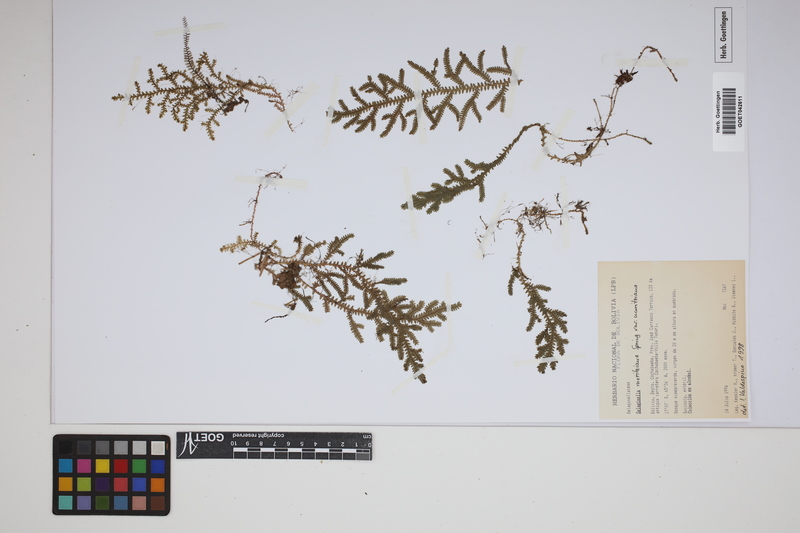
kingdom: Plantae
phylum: Tracheophyta
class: Lycopodiopsida
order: Selaginellales
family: Selaginellaceae
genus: Selaginella
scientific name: Selaginella moritziana
